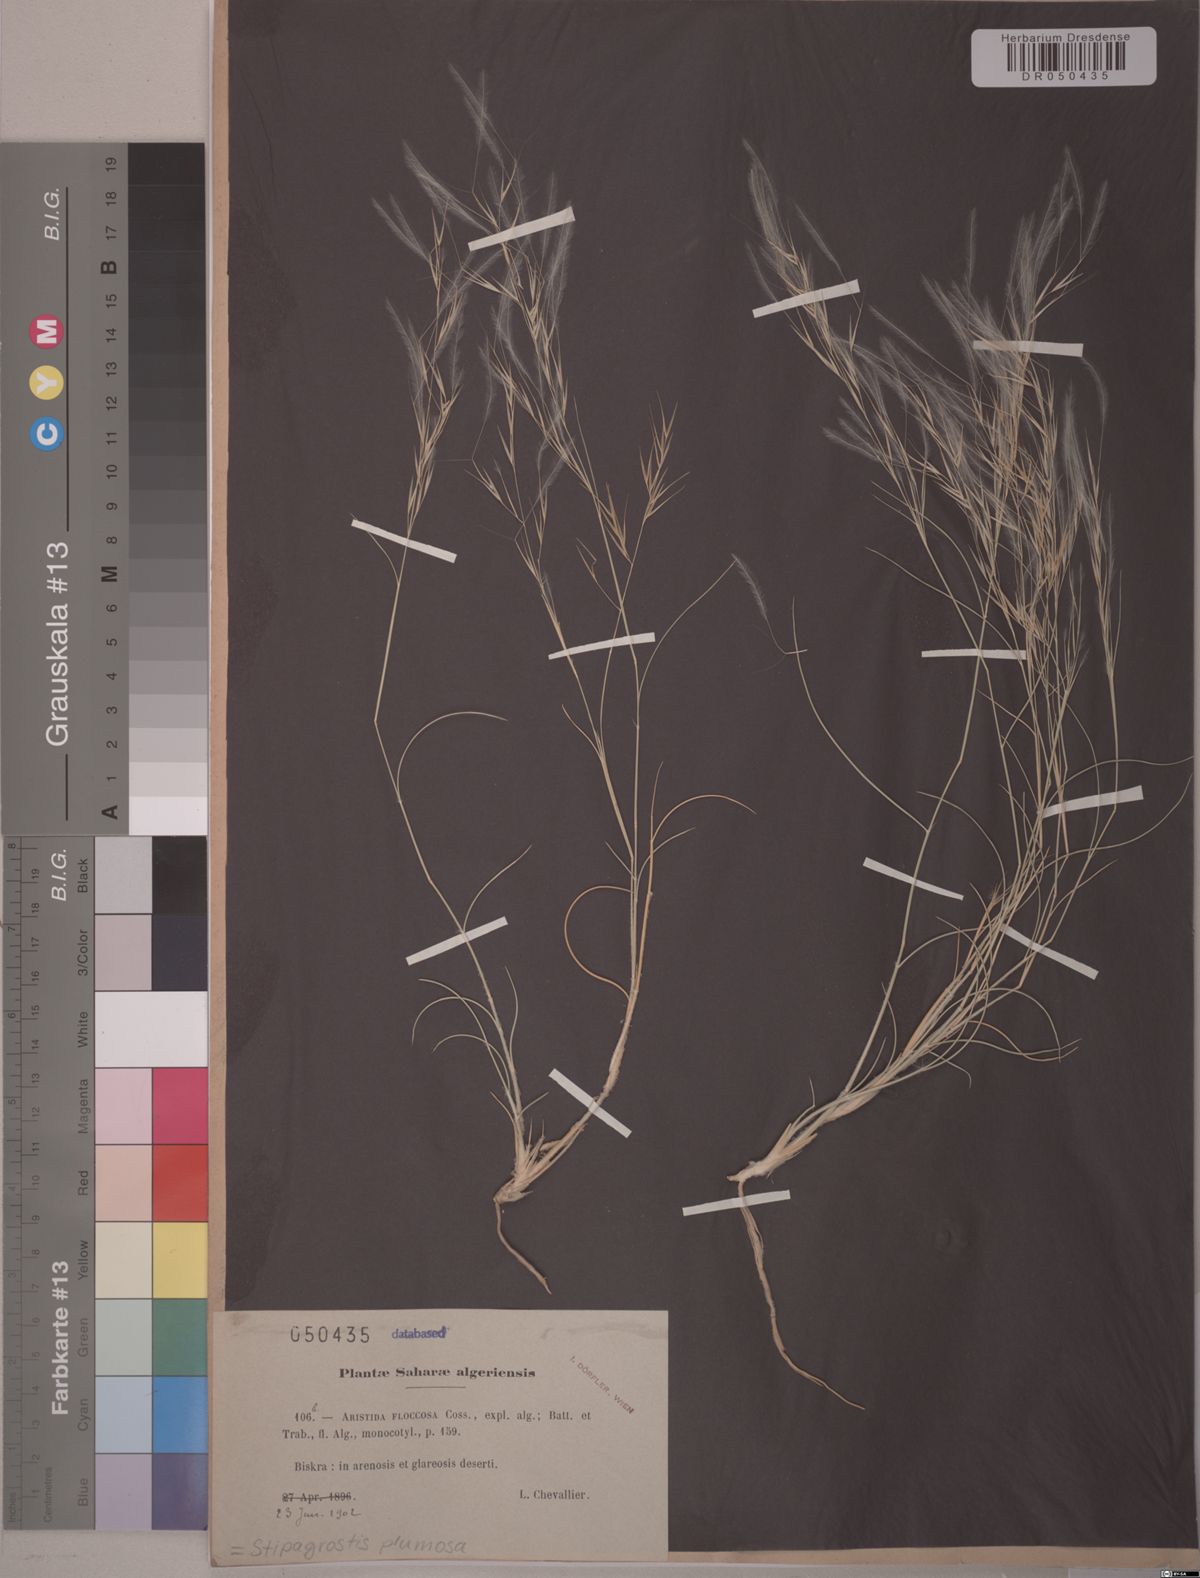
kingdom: Plantae
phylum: Tracheophyta
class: Liliopsida
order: Poales
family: Poaceae
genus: Stipagrostis
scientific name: Stipagrostis plumosa
